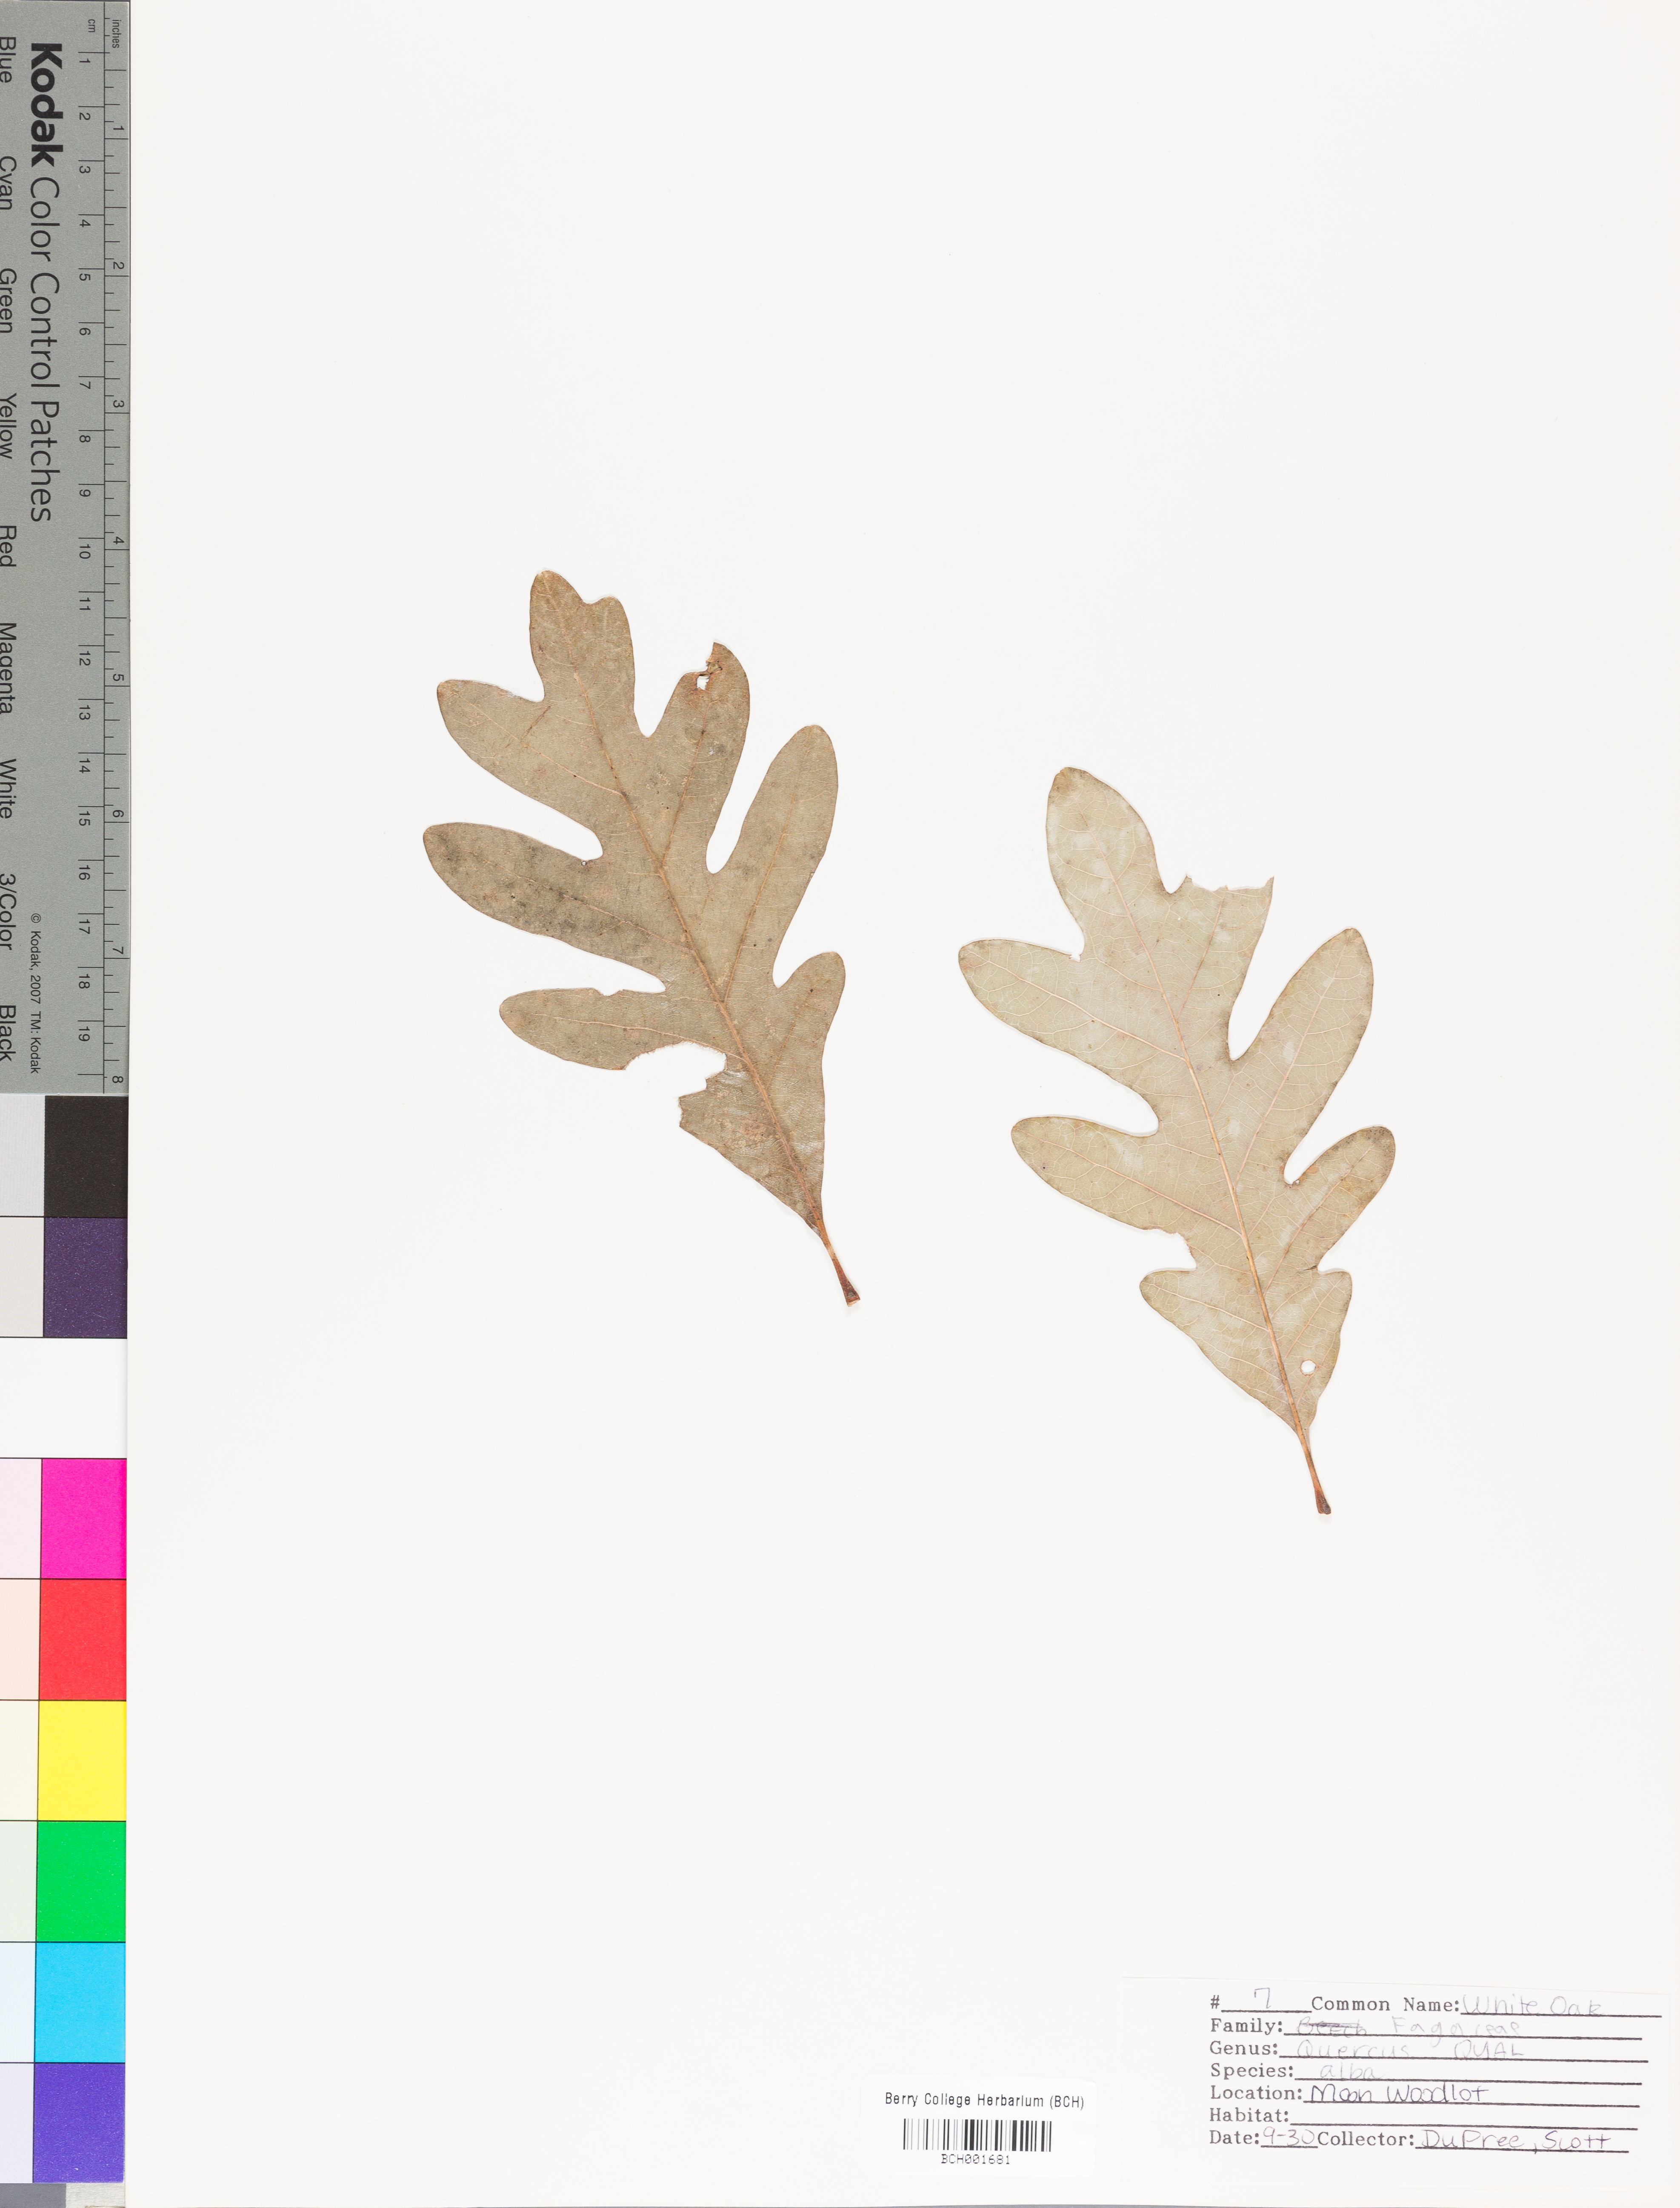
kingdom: Plantae
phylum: Tracheophyta
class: Magnoliopsida
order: Fagales
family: Fagaceae
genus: Quercus
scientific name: Quercus alba
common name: White oak
